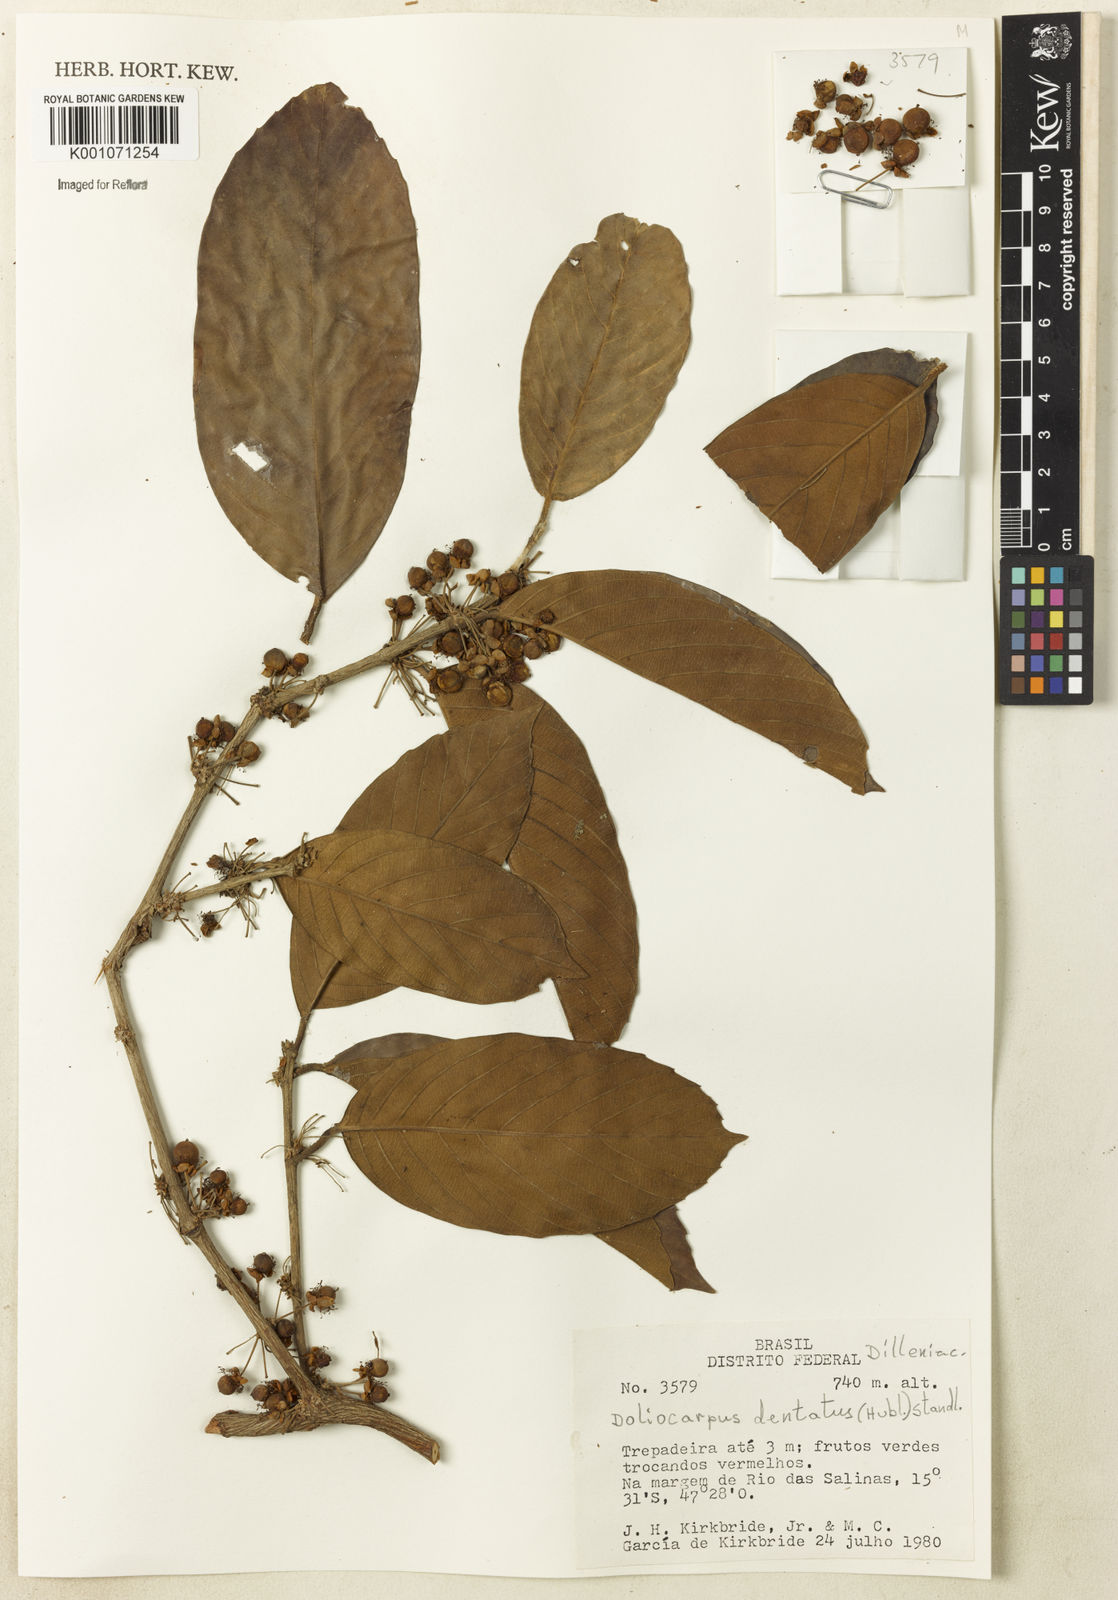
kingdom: Plantae
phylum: Tracheophyta
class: Magnoliopsida
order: Dilleniales
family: Dilleniaceae
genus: Doliocarpus
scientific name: Doliocarpus dentatus
